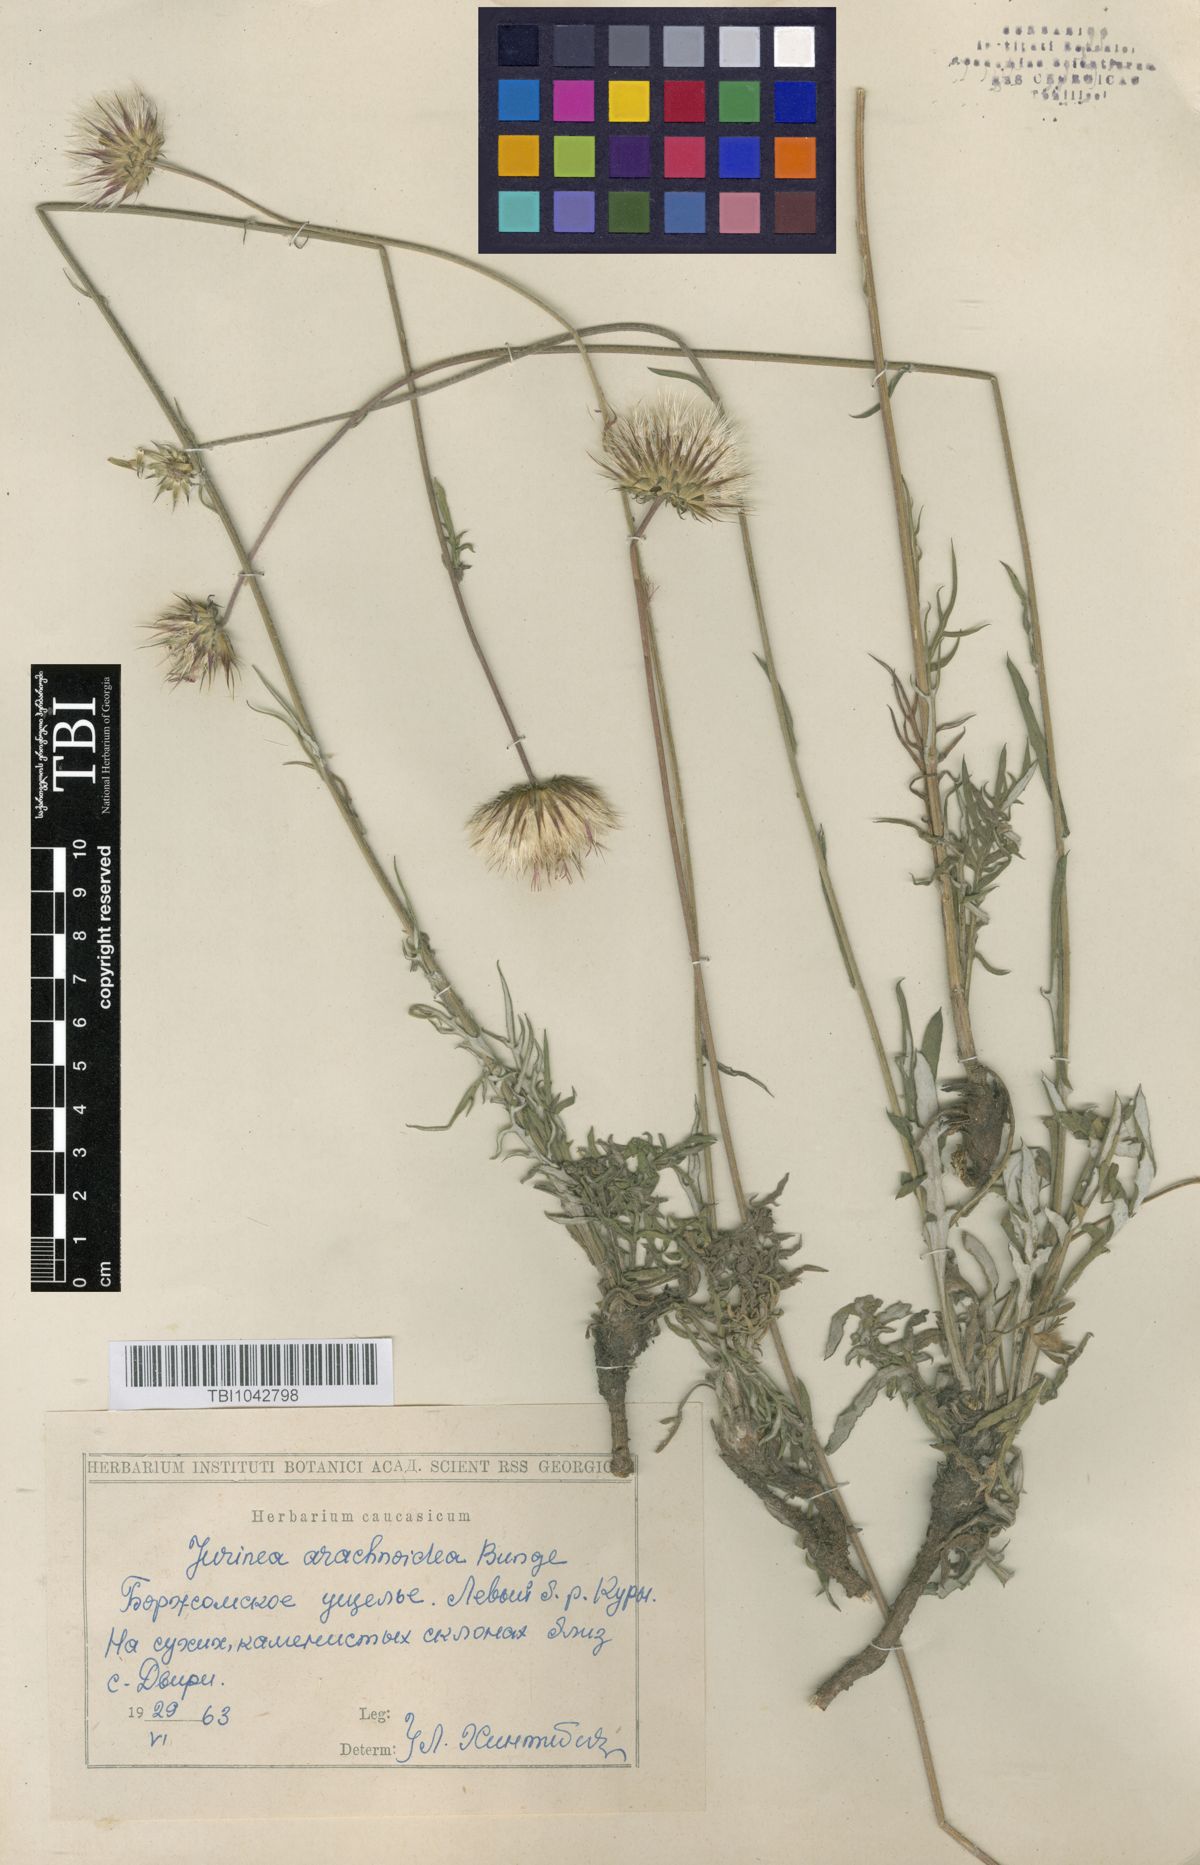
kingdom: Plantae
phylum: Tracheophyta
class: Magnoliopsida
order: Asterales
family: Asteraceae
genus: Jurinea
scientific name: Jurinea blanda
